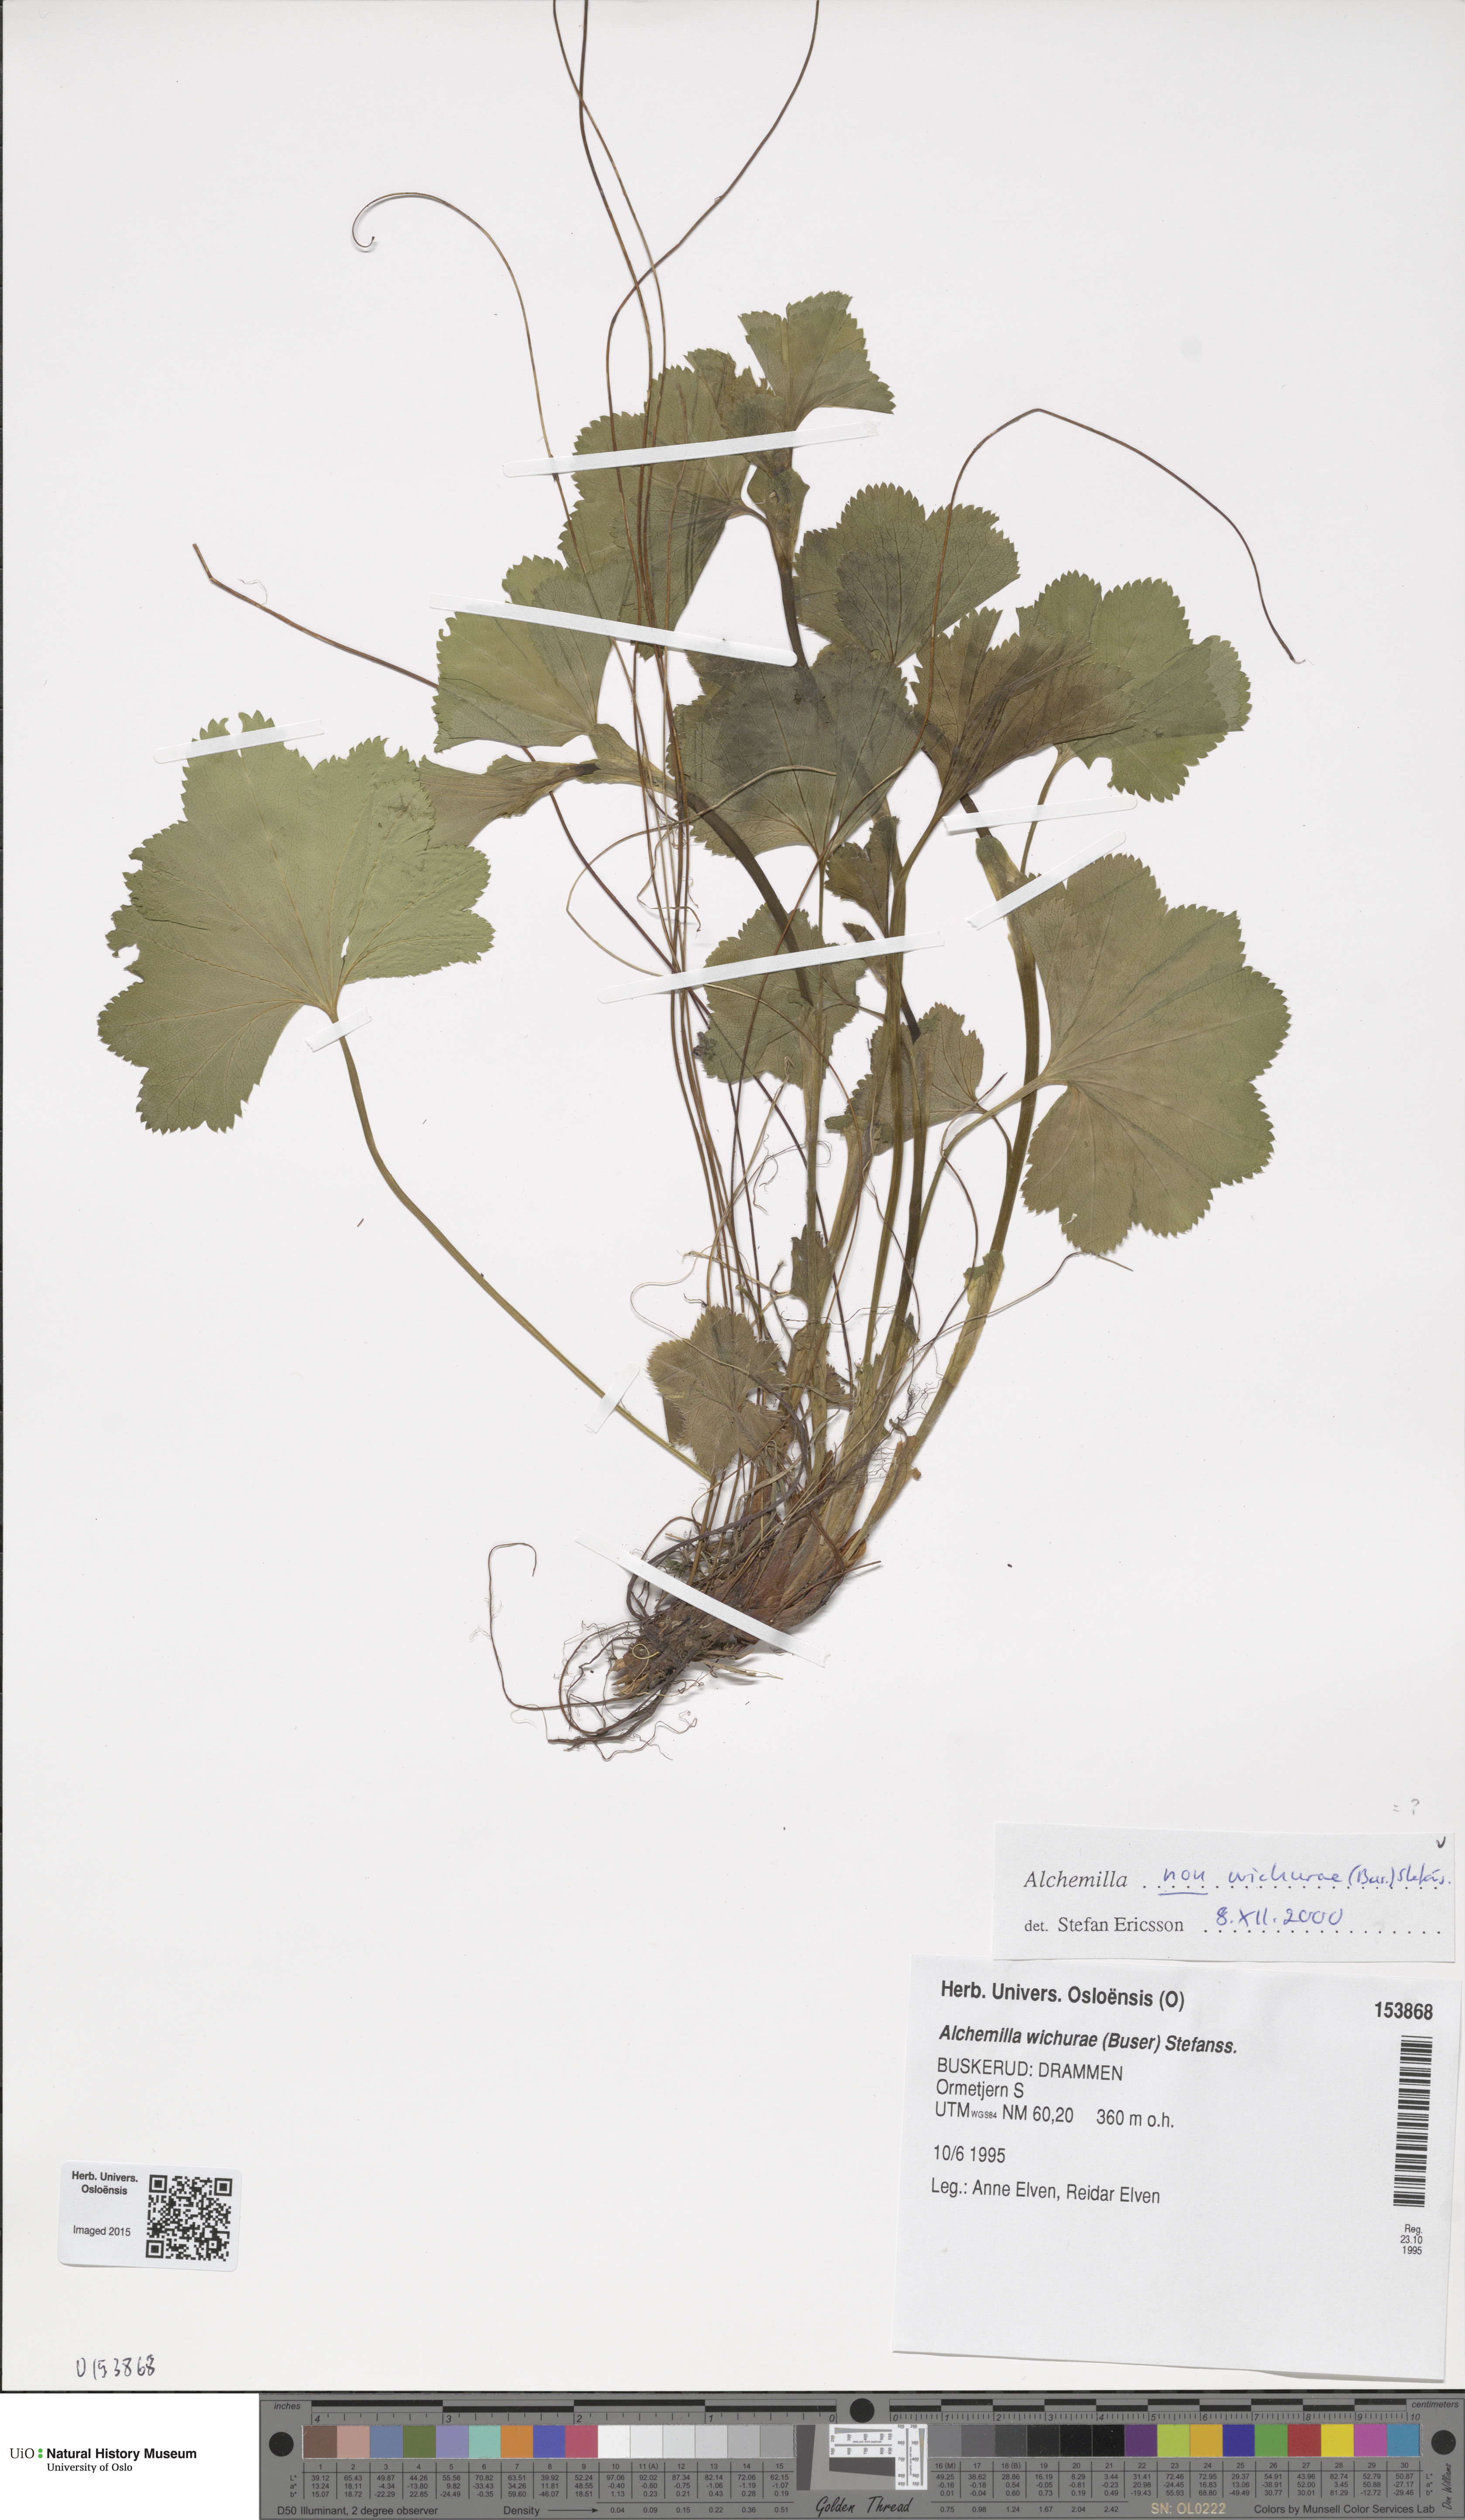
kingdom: Plantae
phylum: Tracheophyta
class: Magnoliopsida
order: Rosales
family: Rosaceae
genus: Alchemilla
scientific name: Alchemilla
